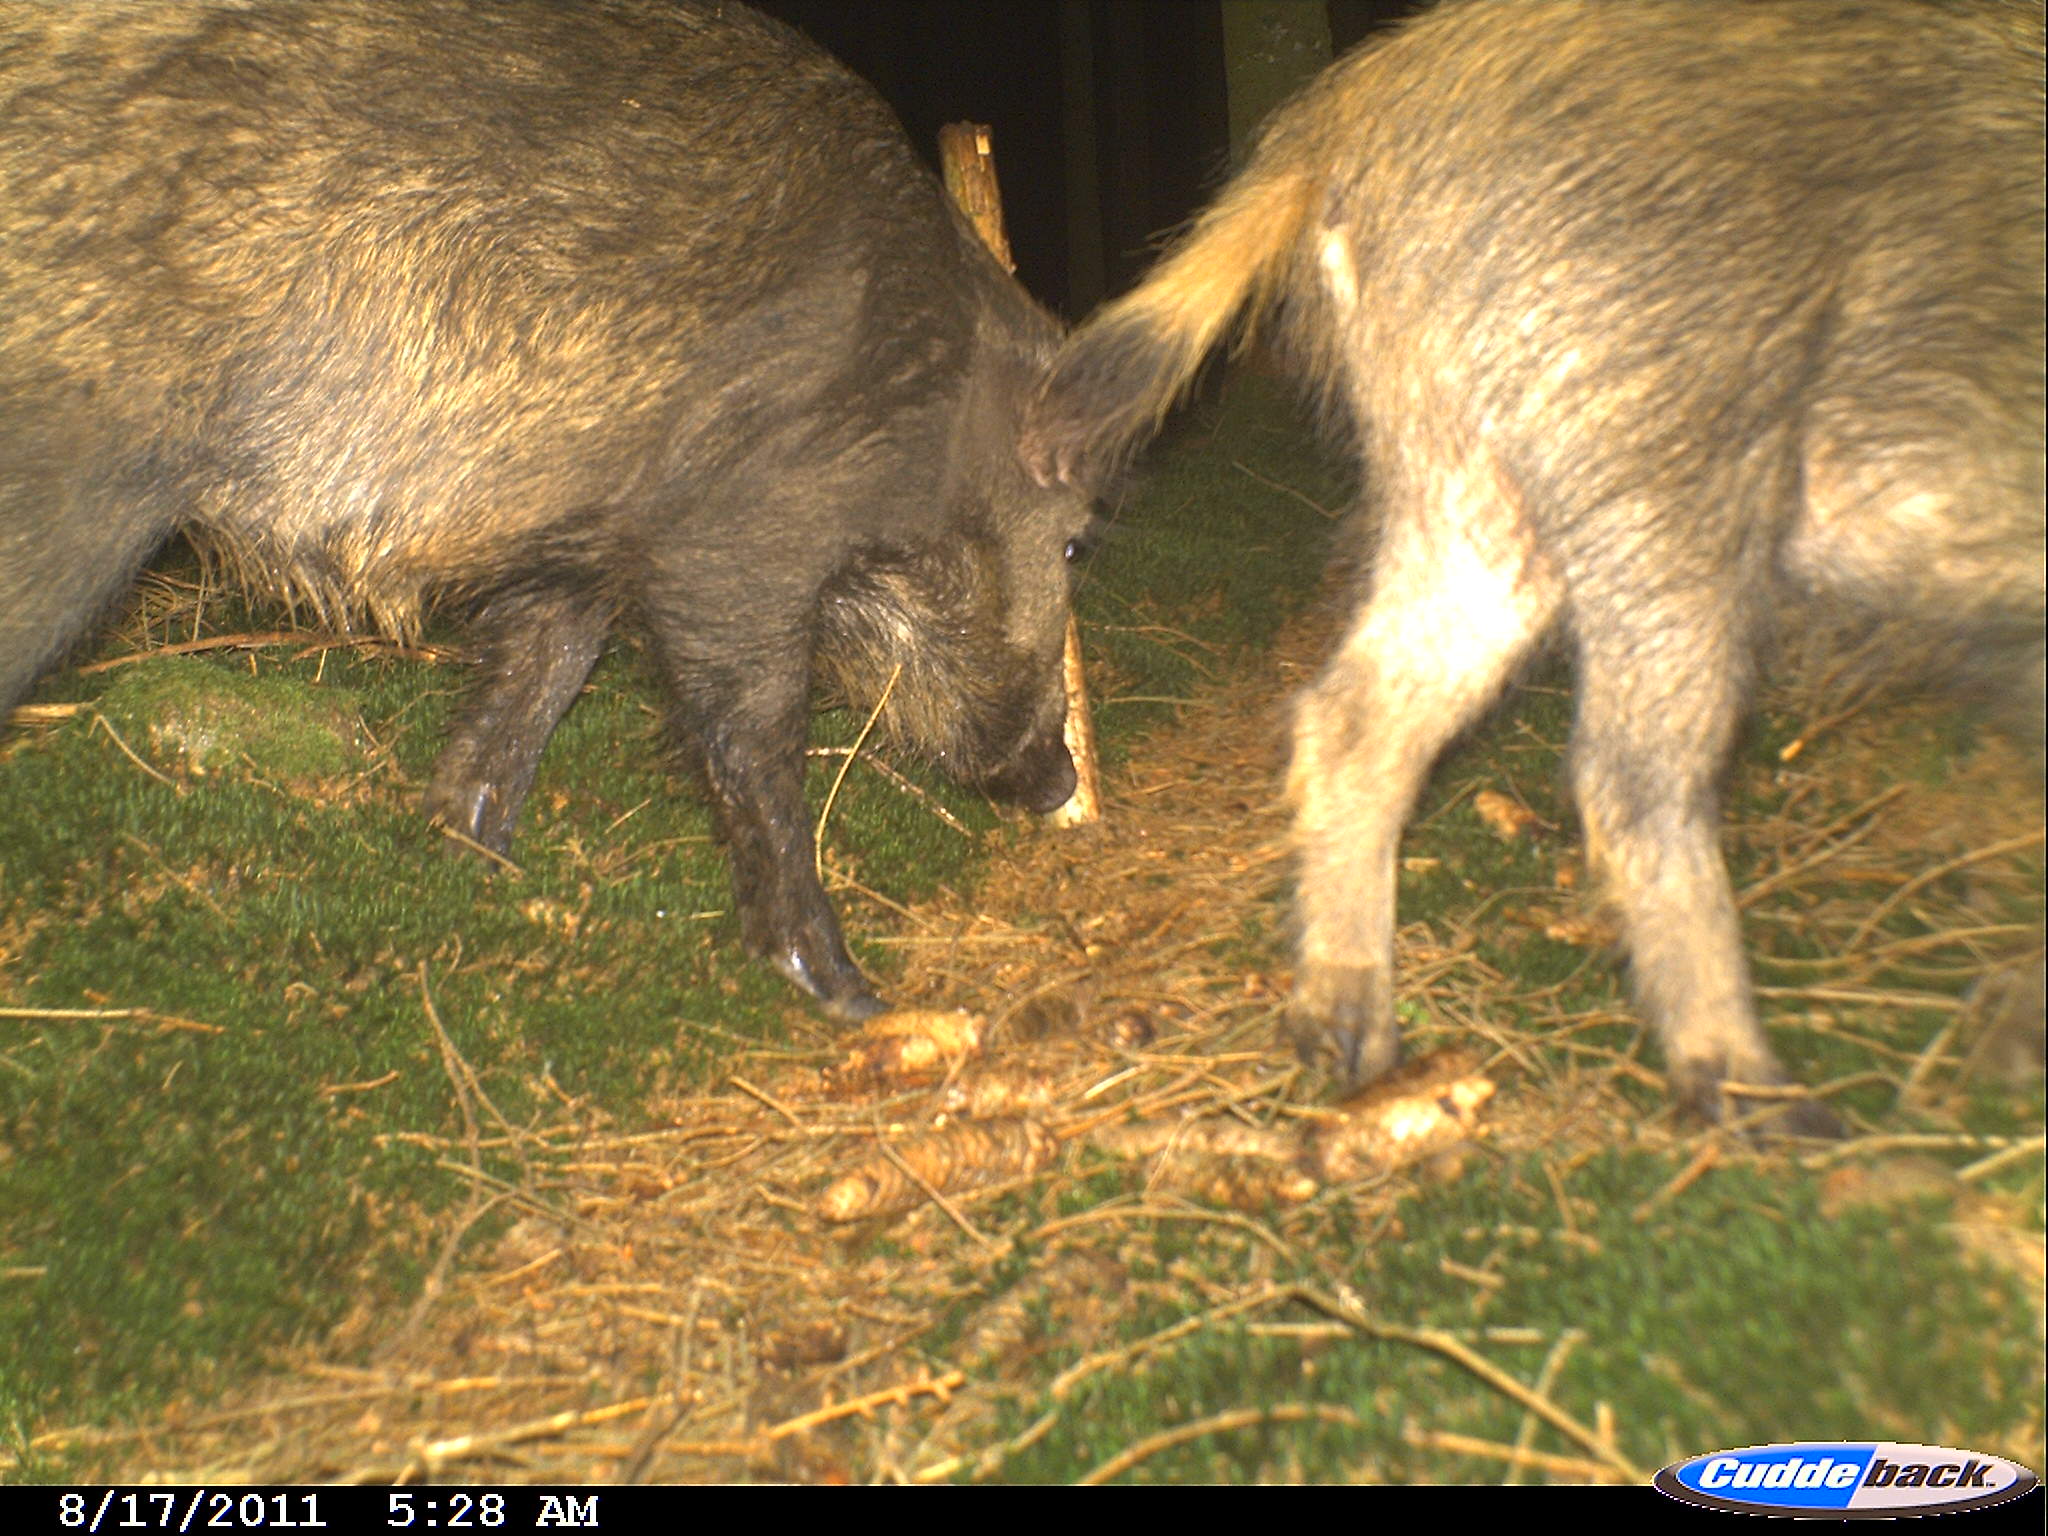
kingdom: Animalia
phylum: Chordata
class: Mammalia
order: Artiodactyla
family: Suidae
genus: Sus
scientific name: Sus scrofa
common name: Wild boar
